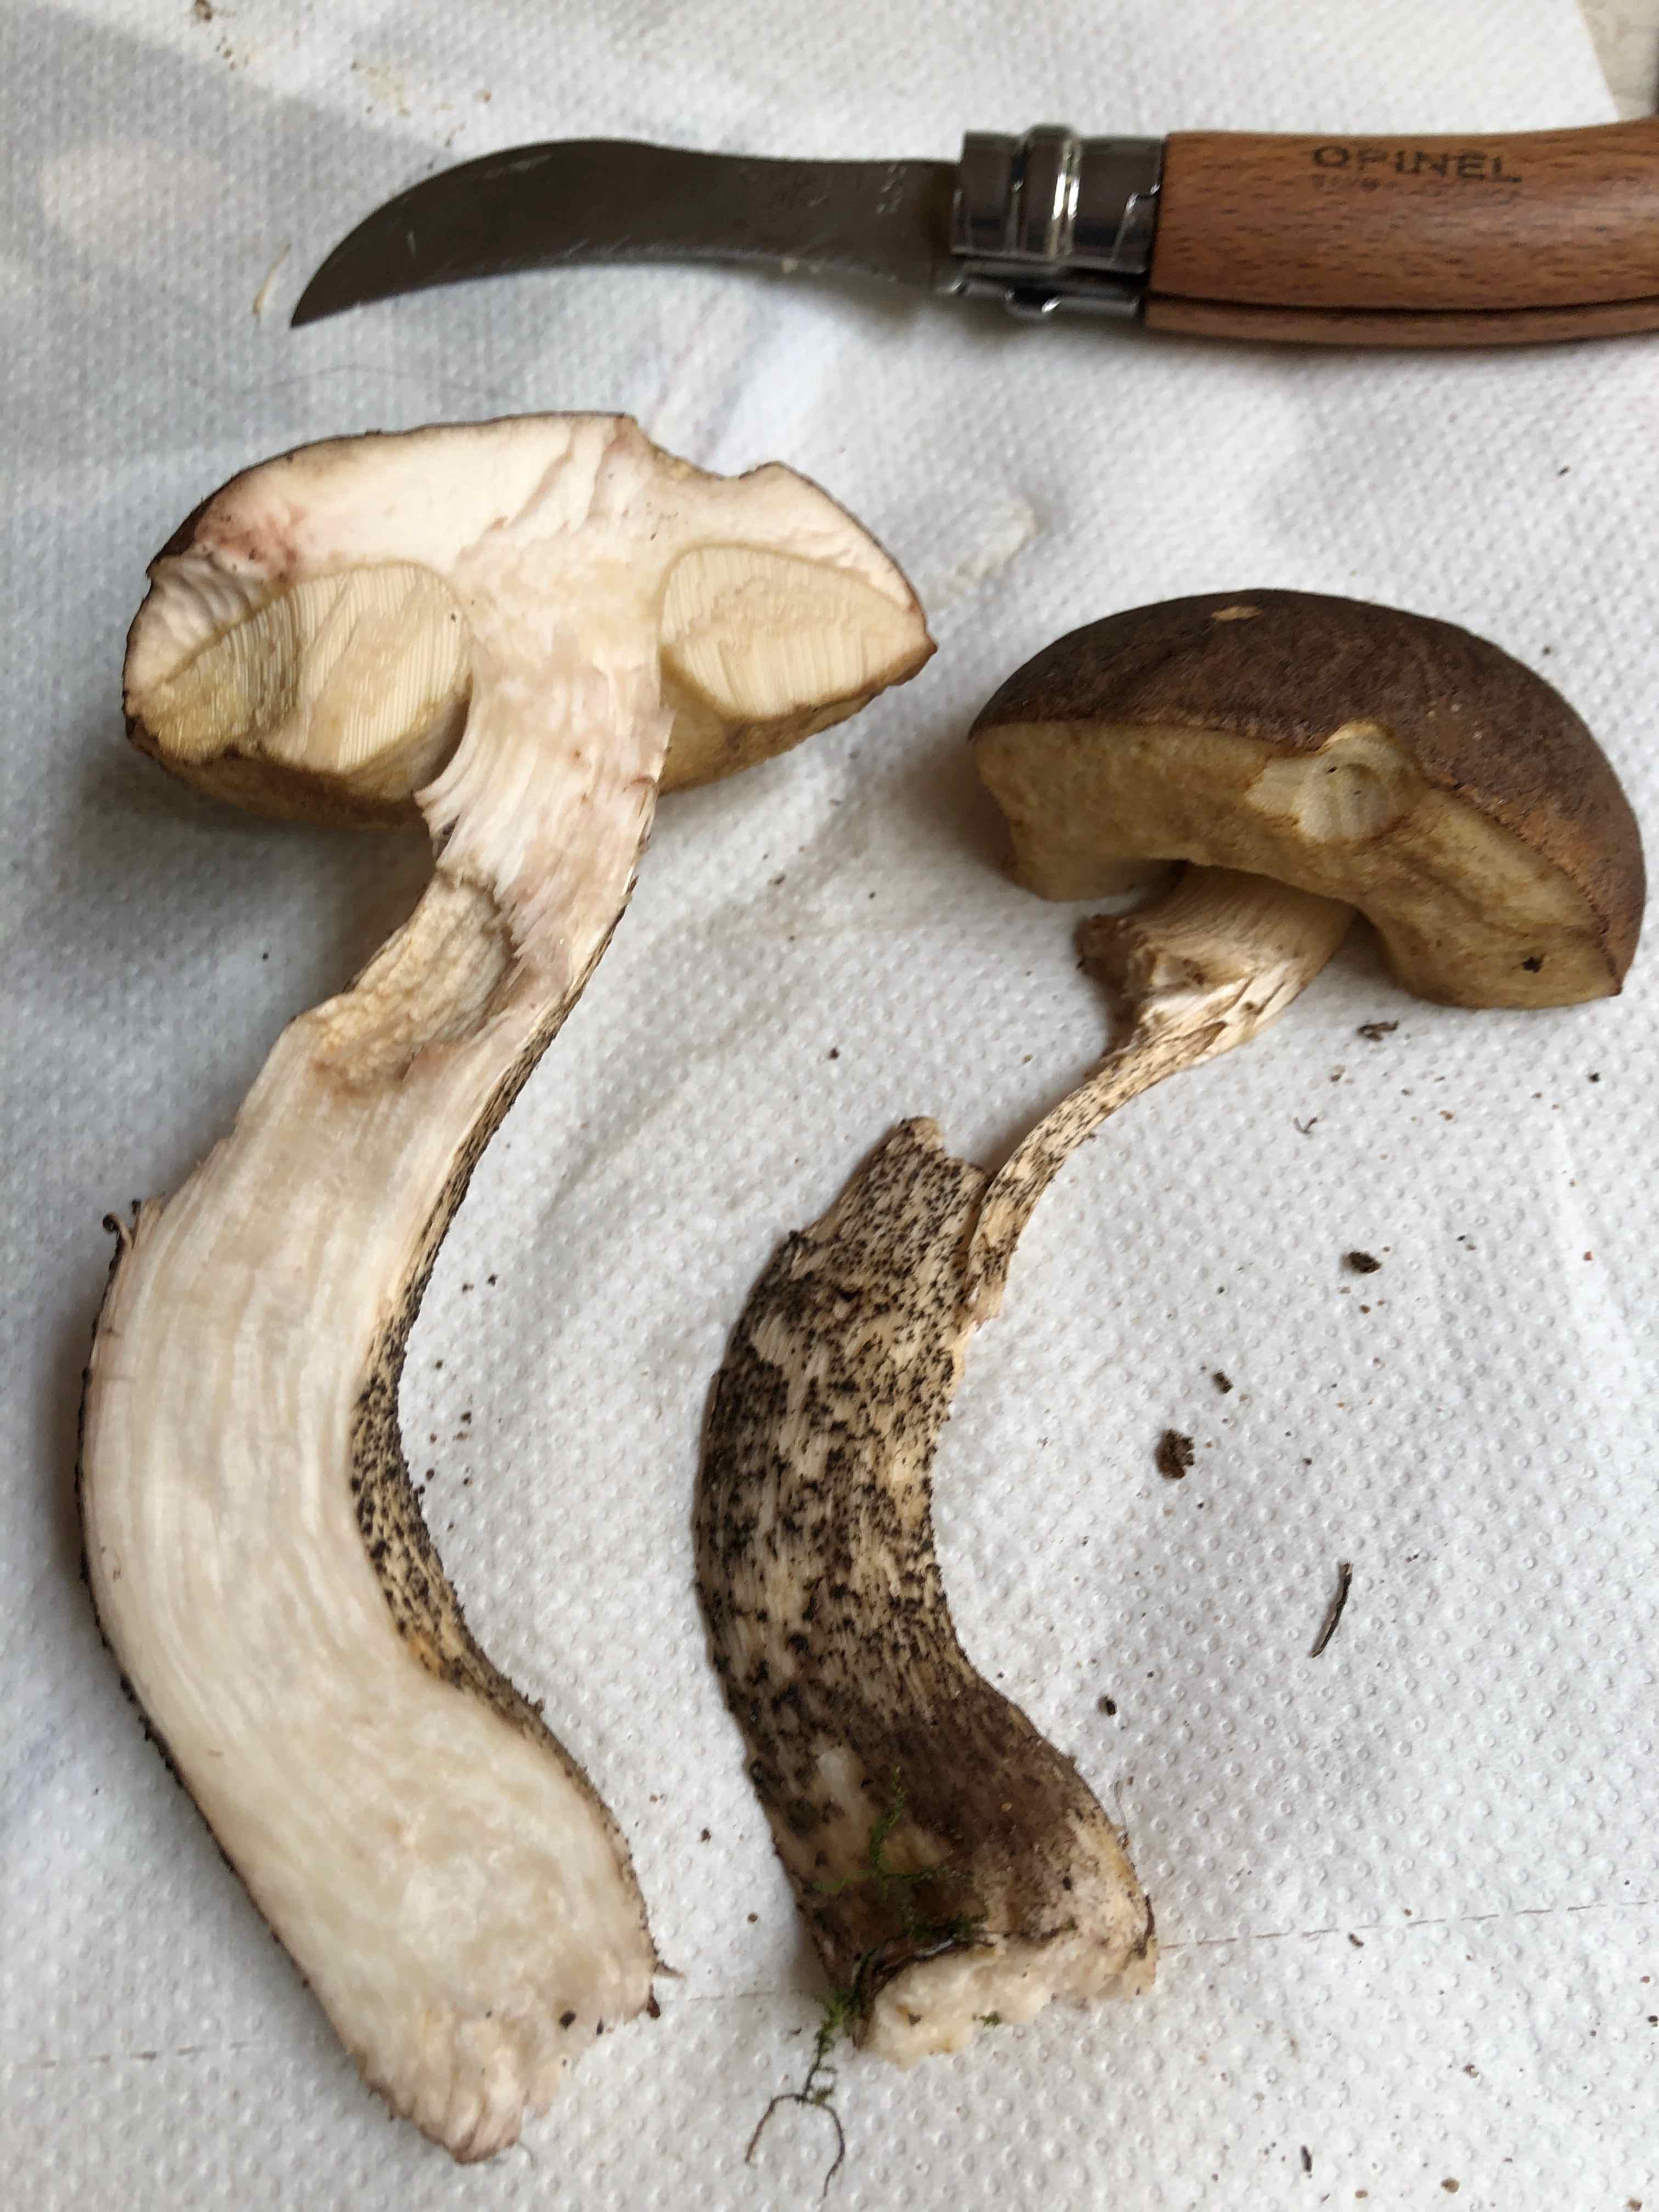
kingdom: Fungi
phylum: Basidiomycota
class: Agaricomycetes
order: Boletales
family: Boletaceae
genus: Leccinum
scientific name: Leccinum scabrum
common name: brun skælrørhat
